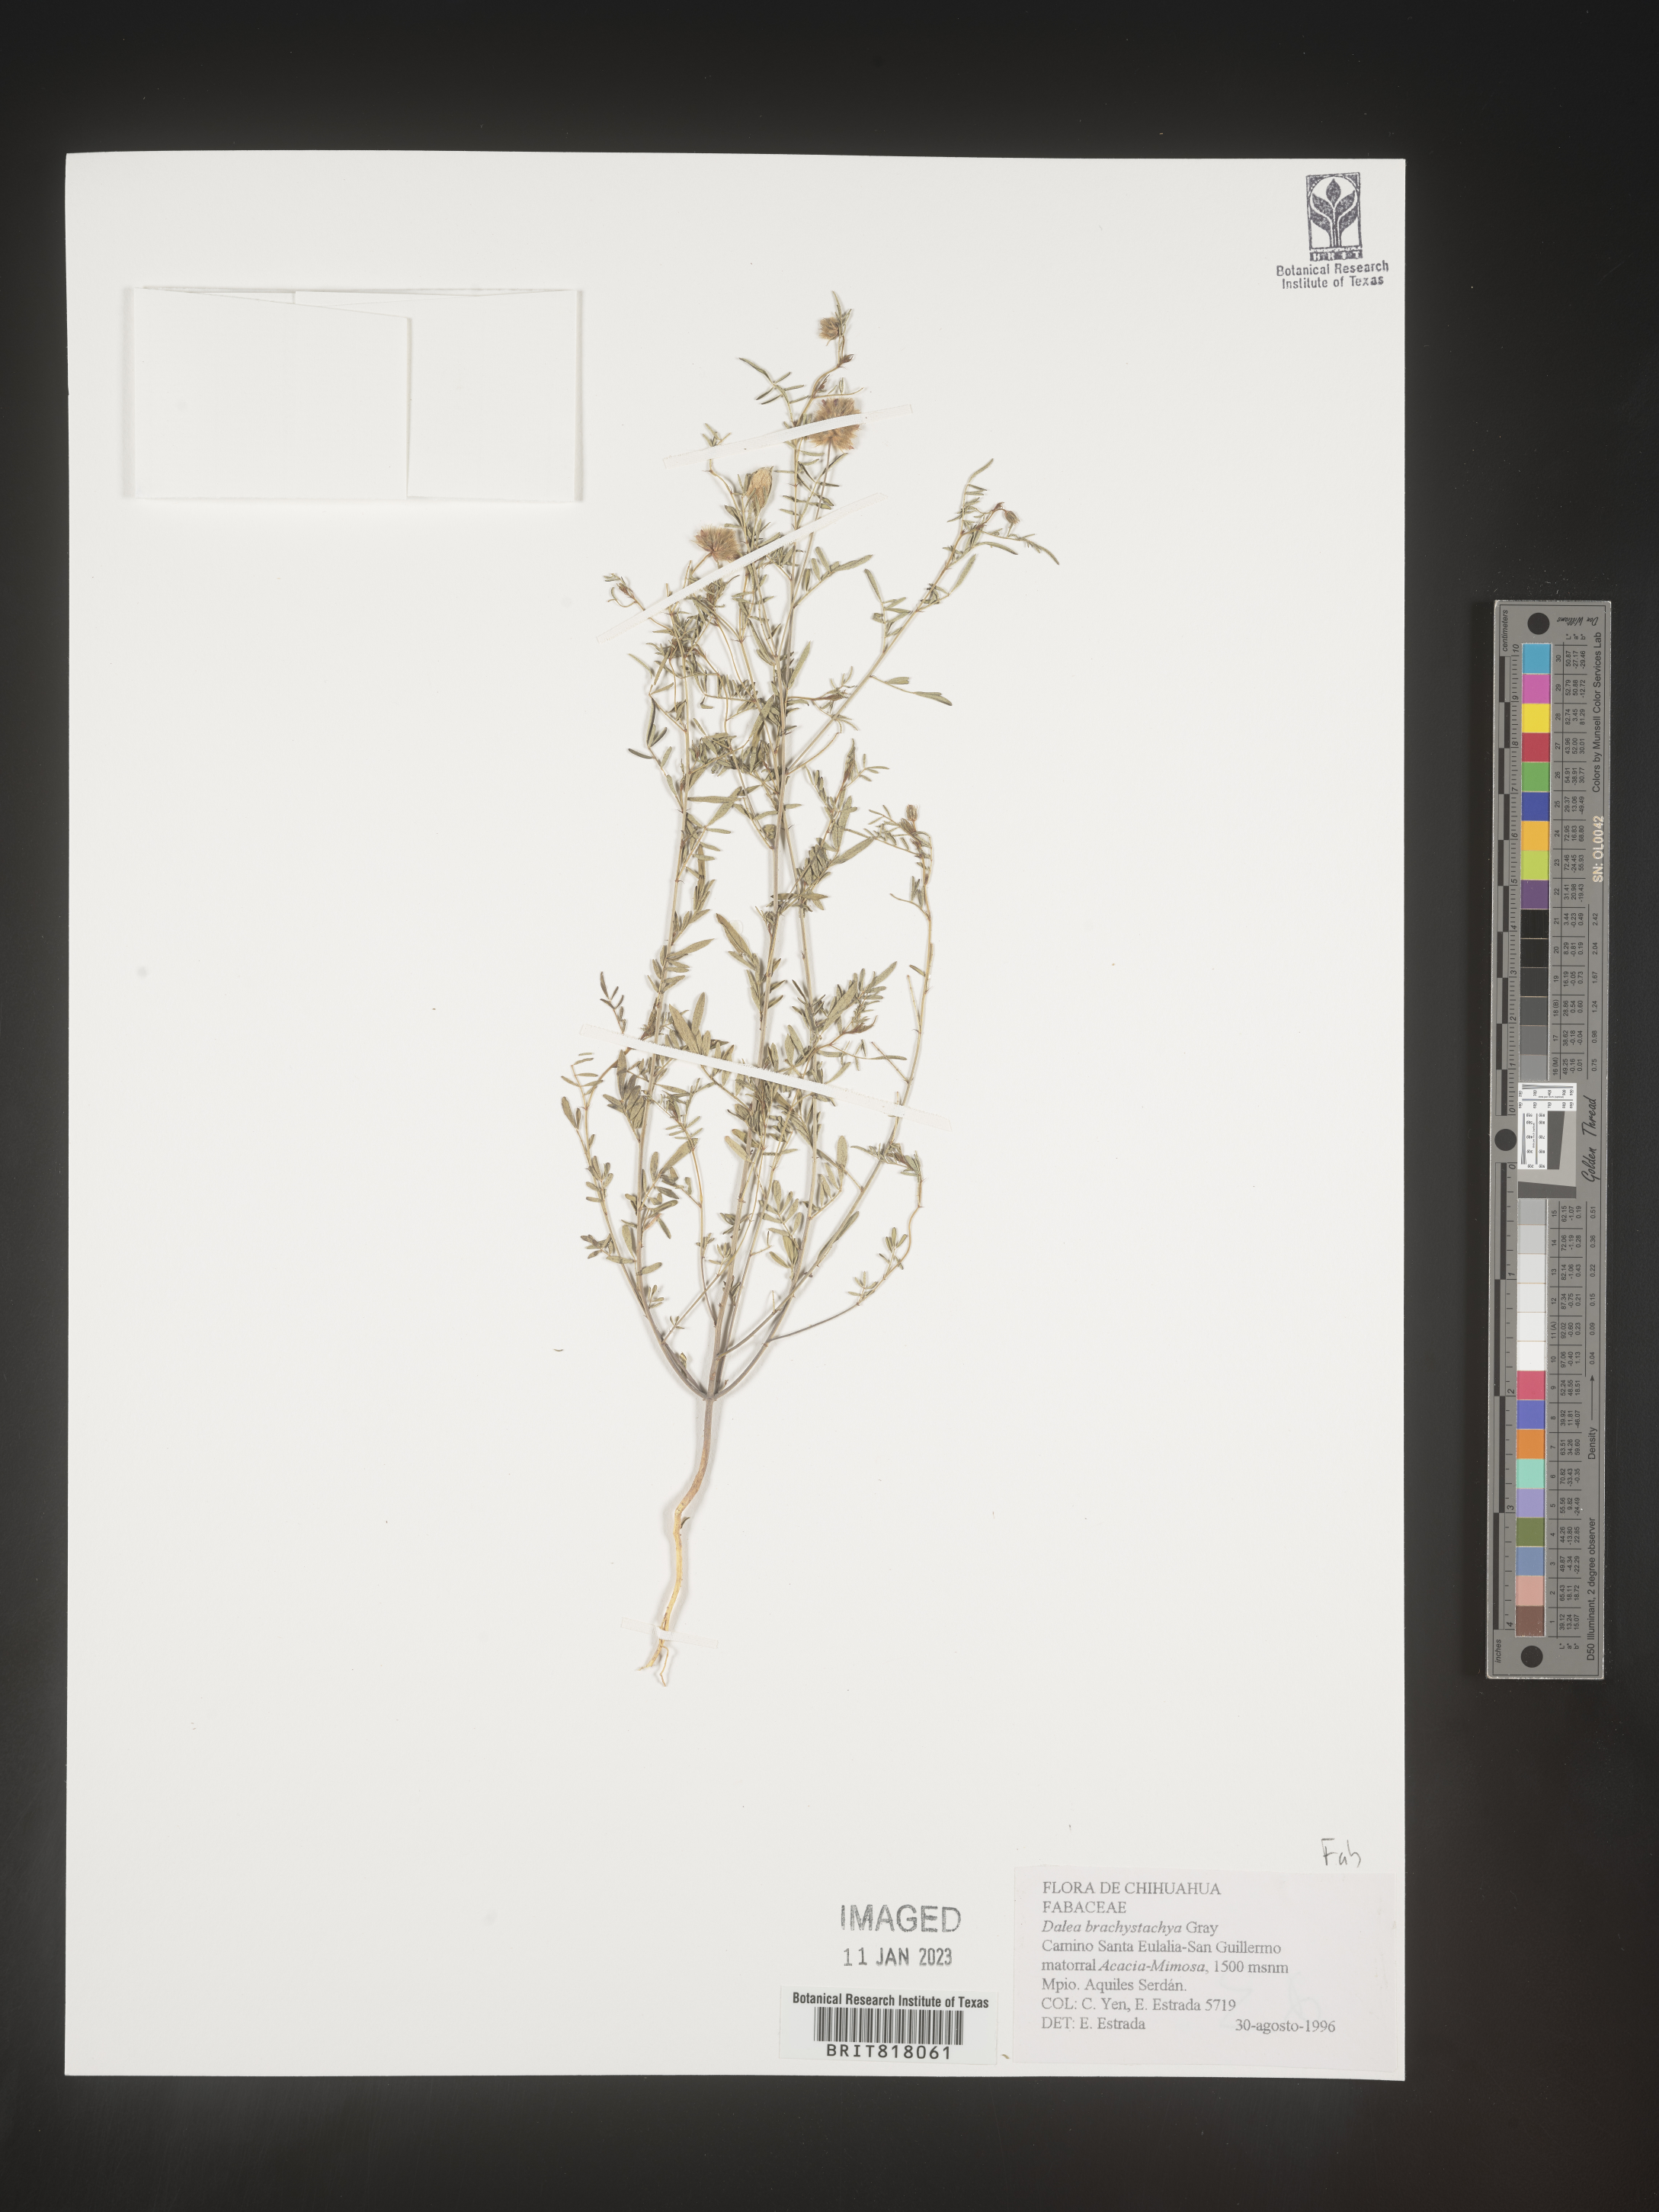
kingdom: Plantae
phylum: Tracheophyta
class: Magnoliopsida
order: Fabales
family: Fabaceae
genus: Dalea
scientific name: Dalea
